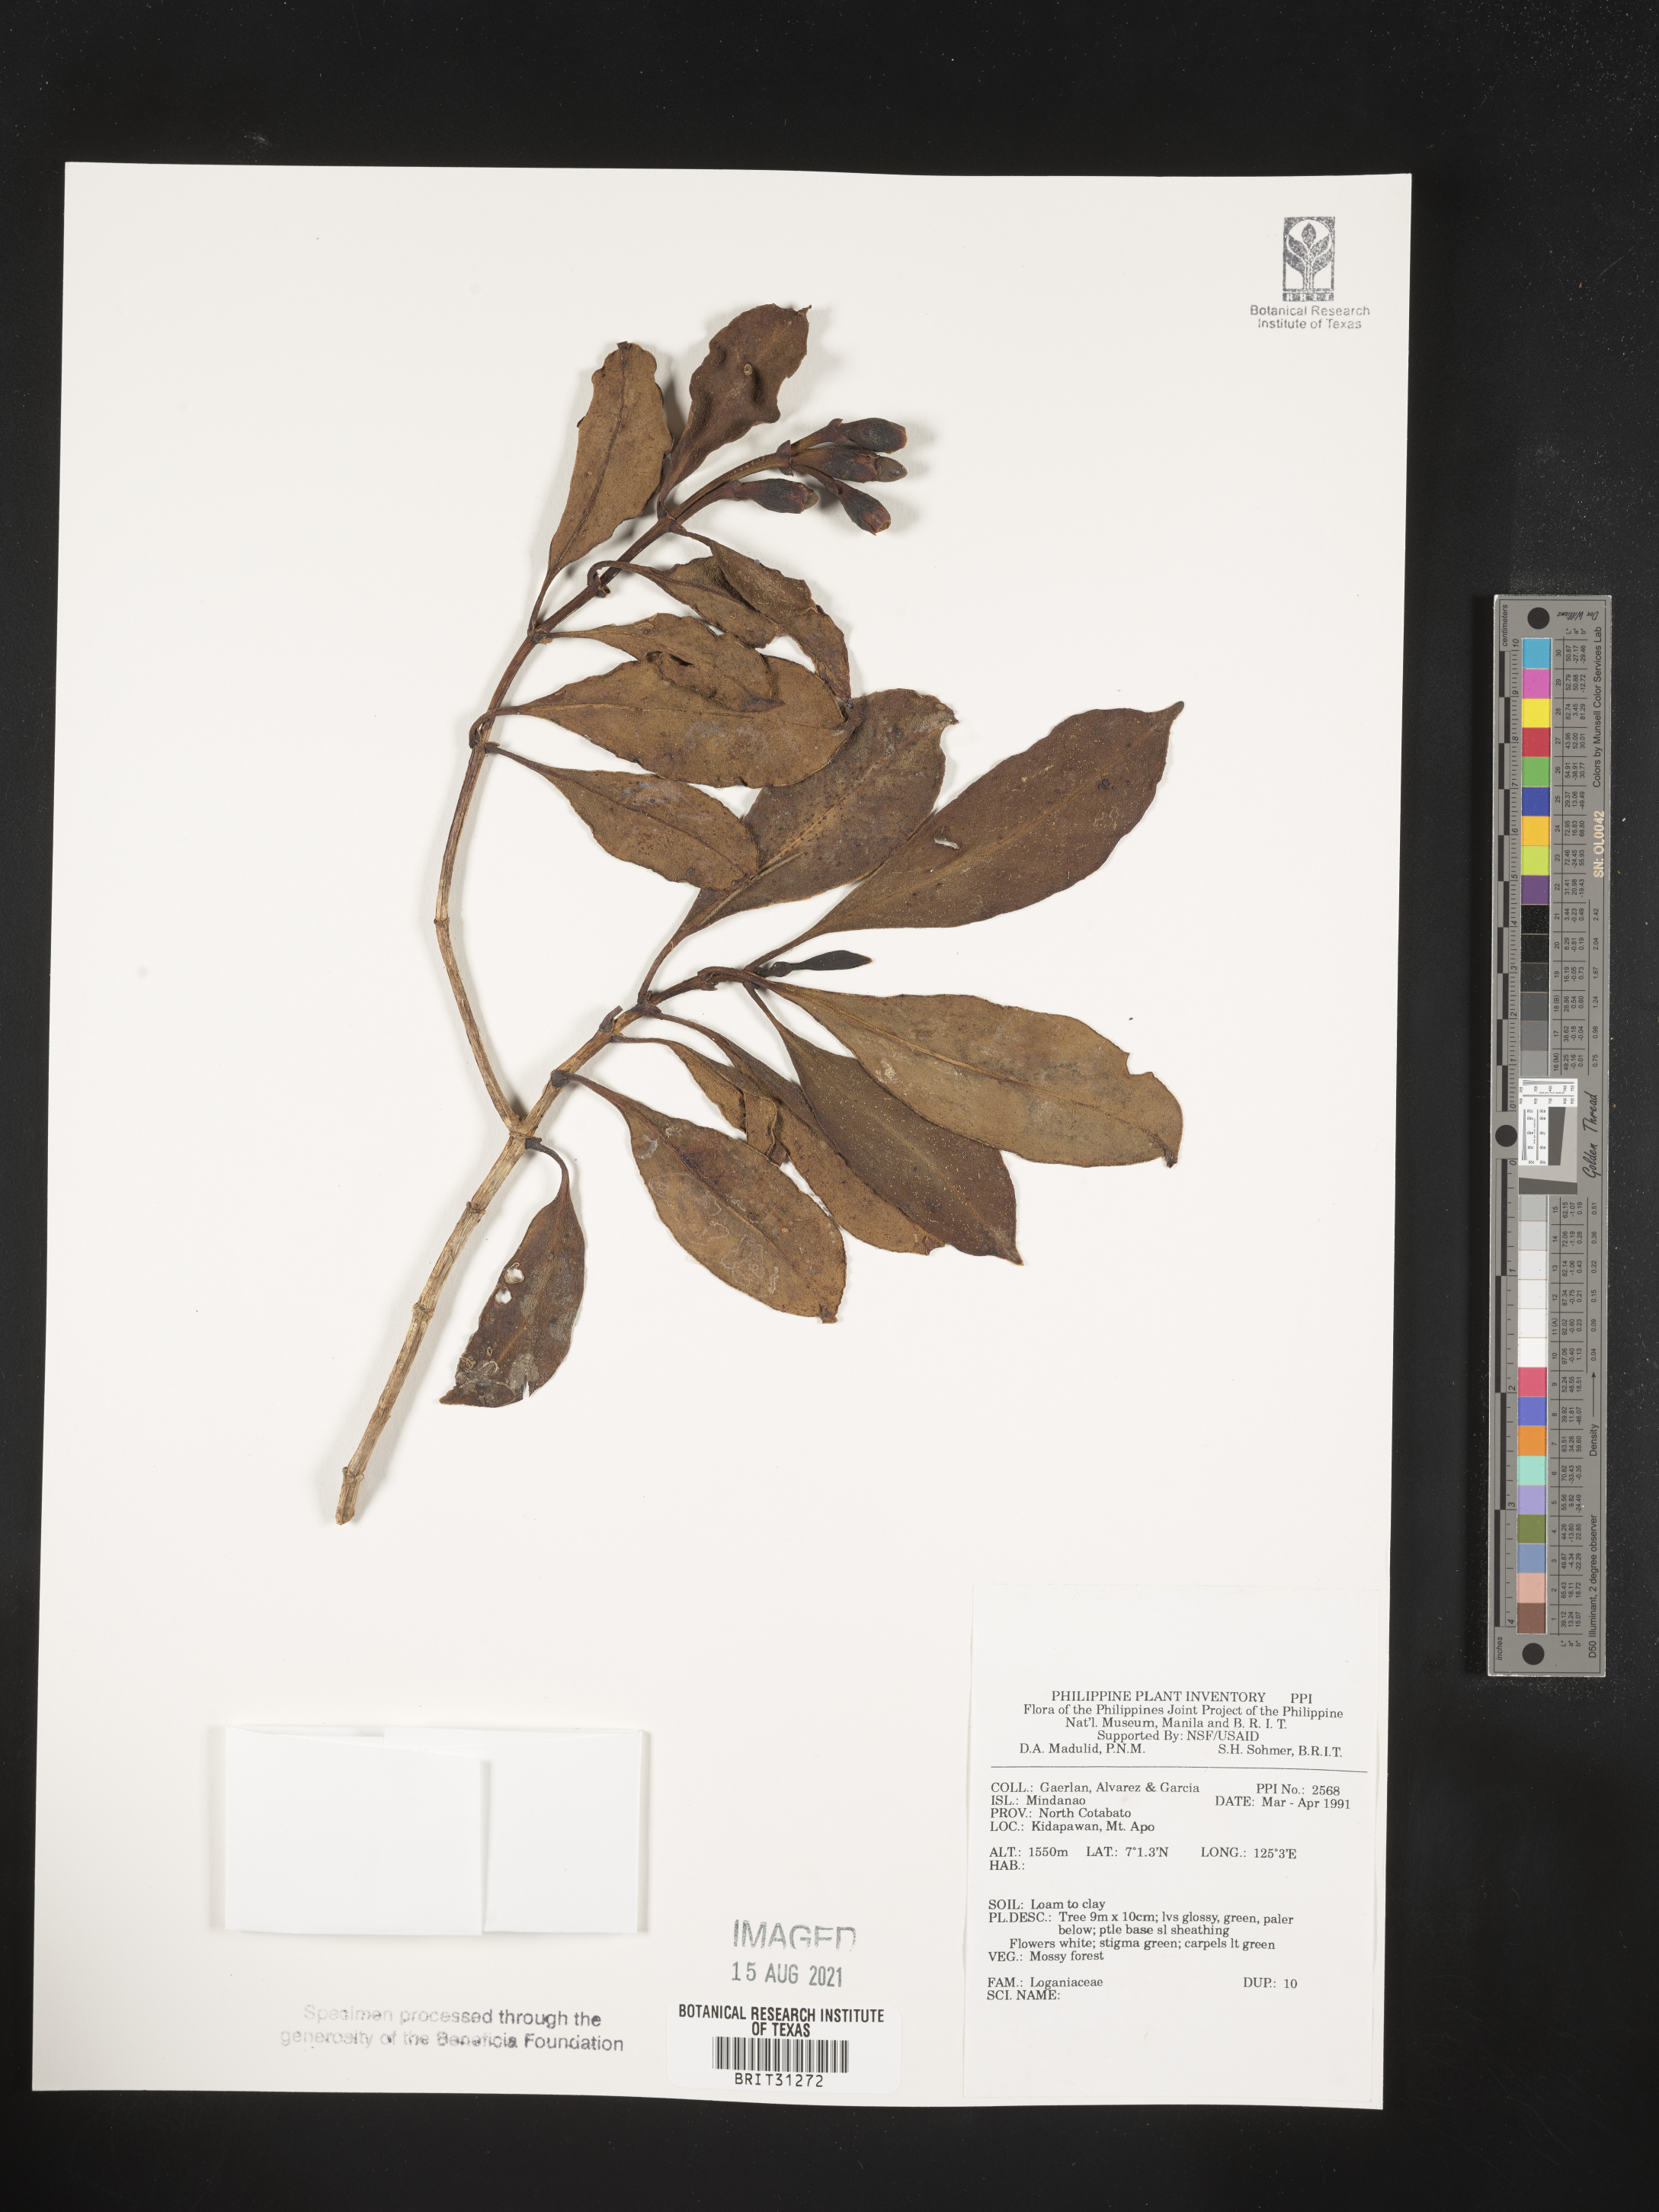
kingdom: Plantae
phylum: Tracheophyta
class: Magnoliopsida
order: Gentianales
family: Loganiaceae
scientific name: Loganiaceae
